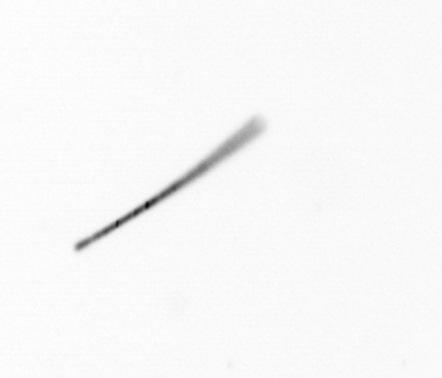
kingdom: Chromista
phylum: Ochrophyta
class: Bacillariophyceae
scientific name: Bacillariophyceae
